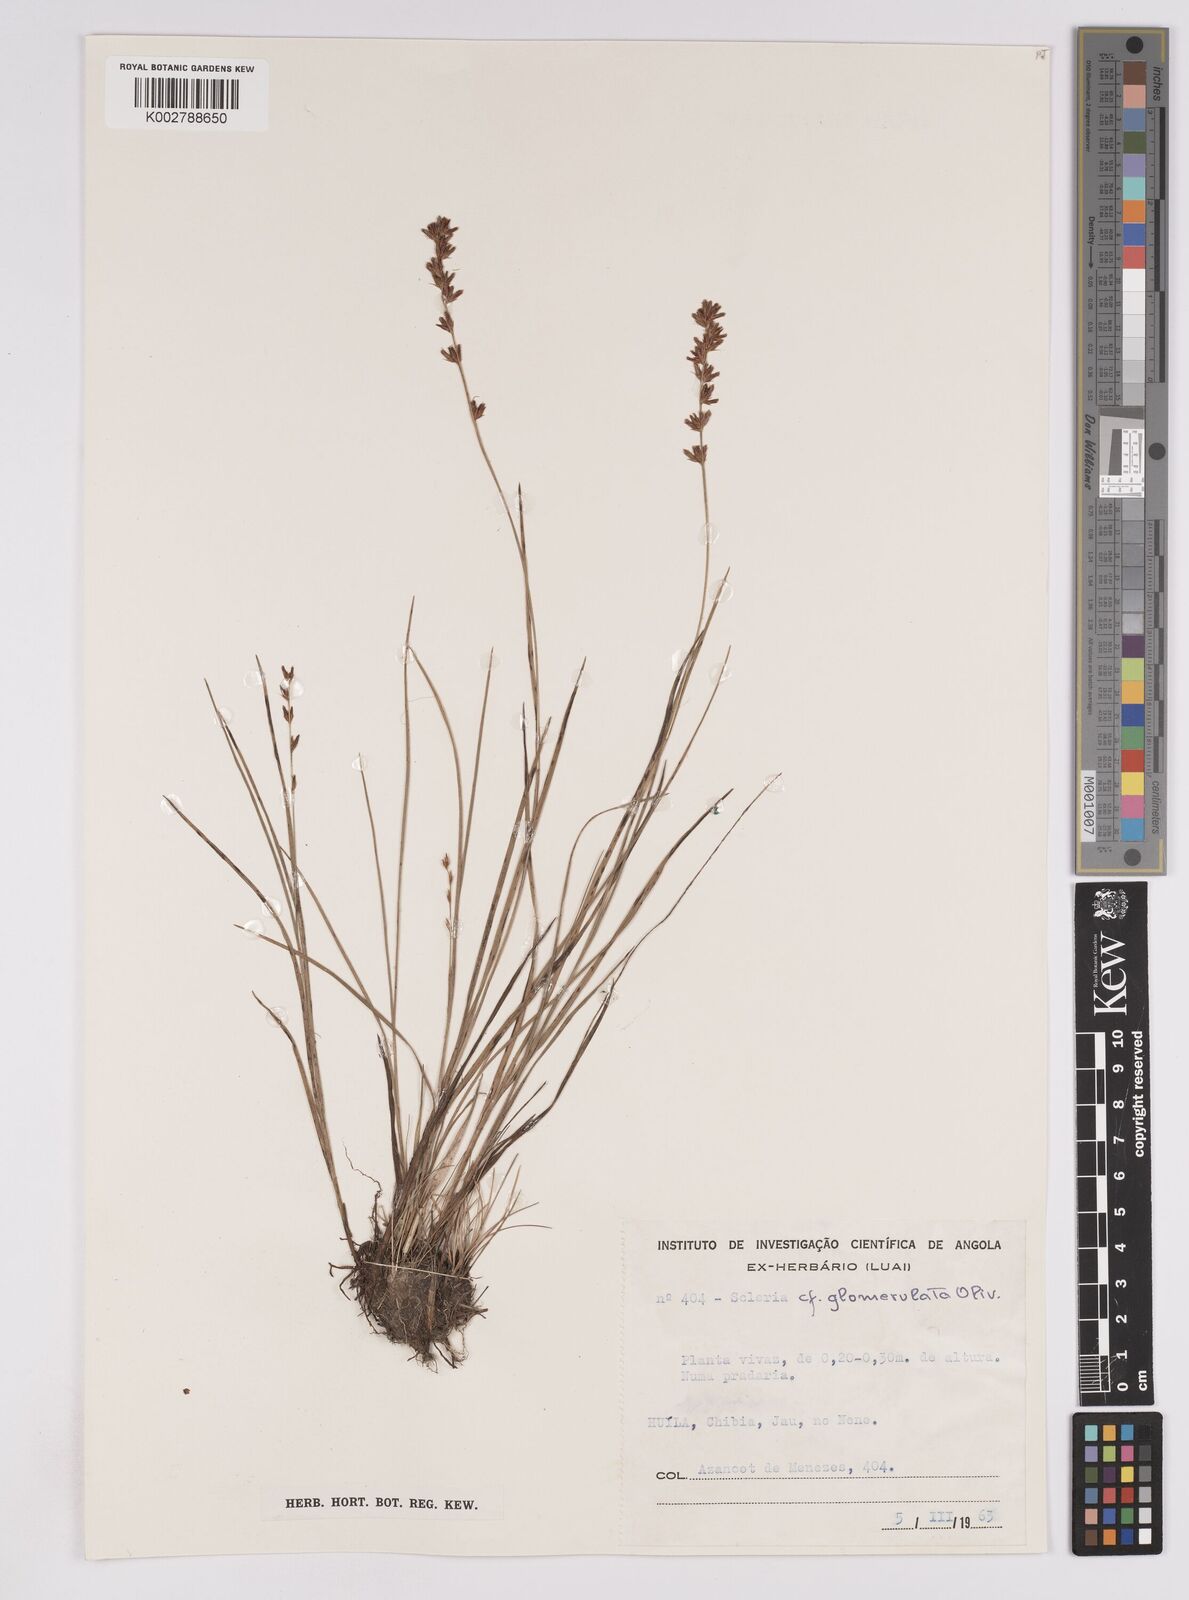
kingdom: Plantae
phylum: Tracheophyta
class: Liliopsida
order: Poales
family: Cyperaceae
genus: Scleria
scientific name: Scleria
